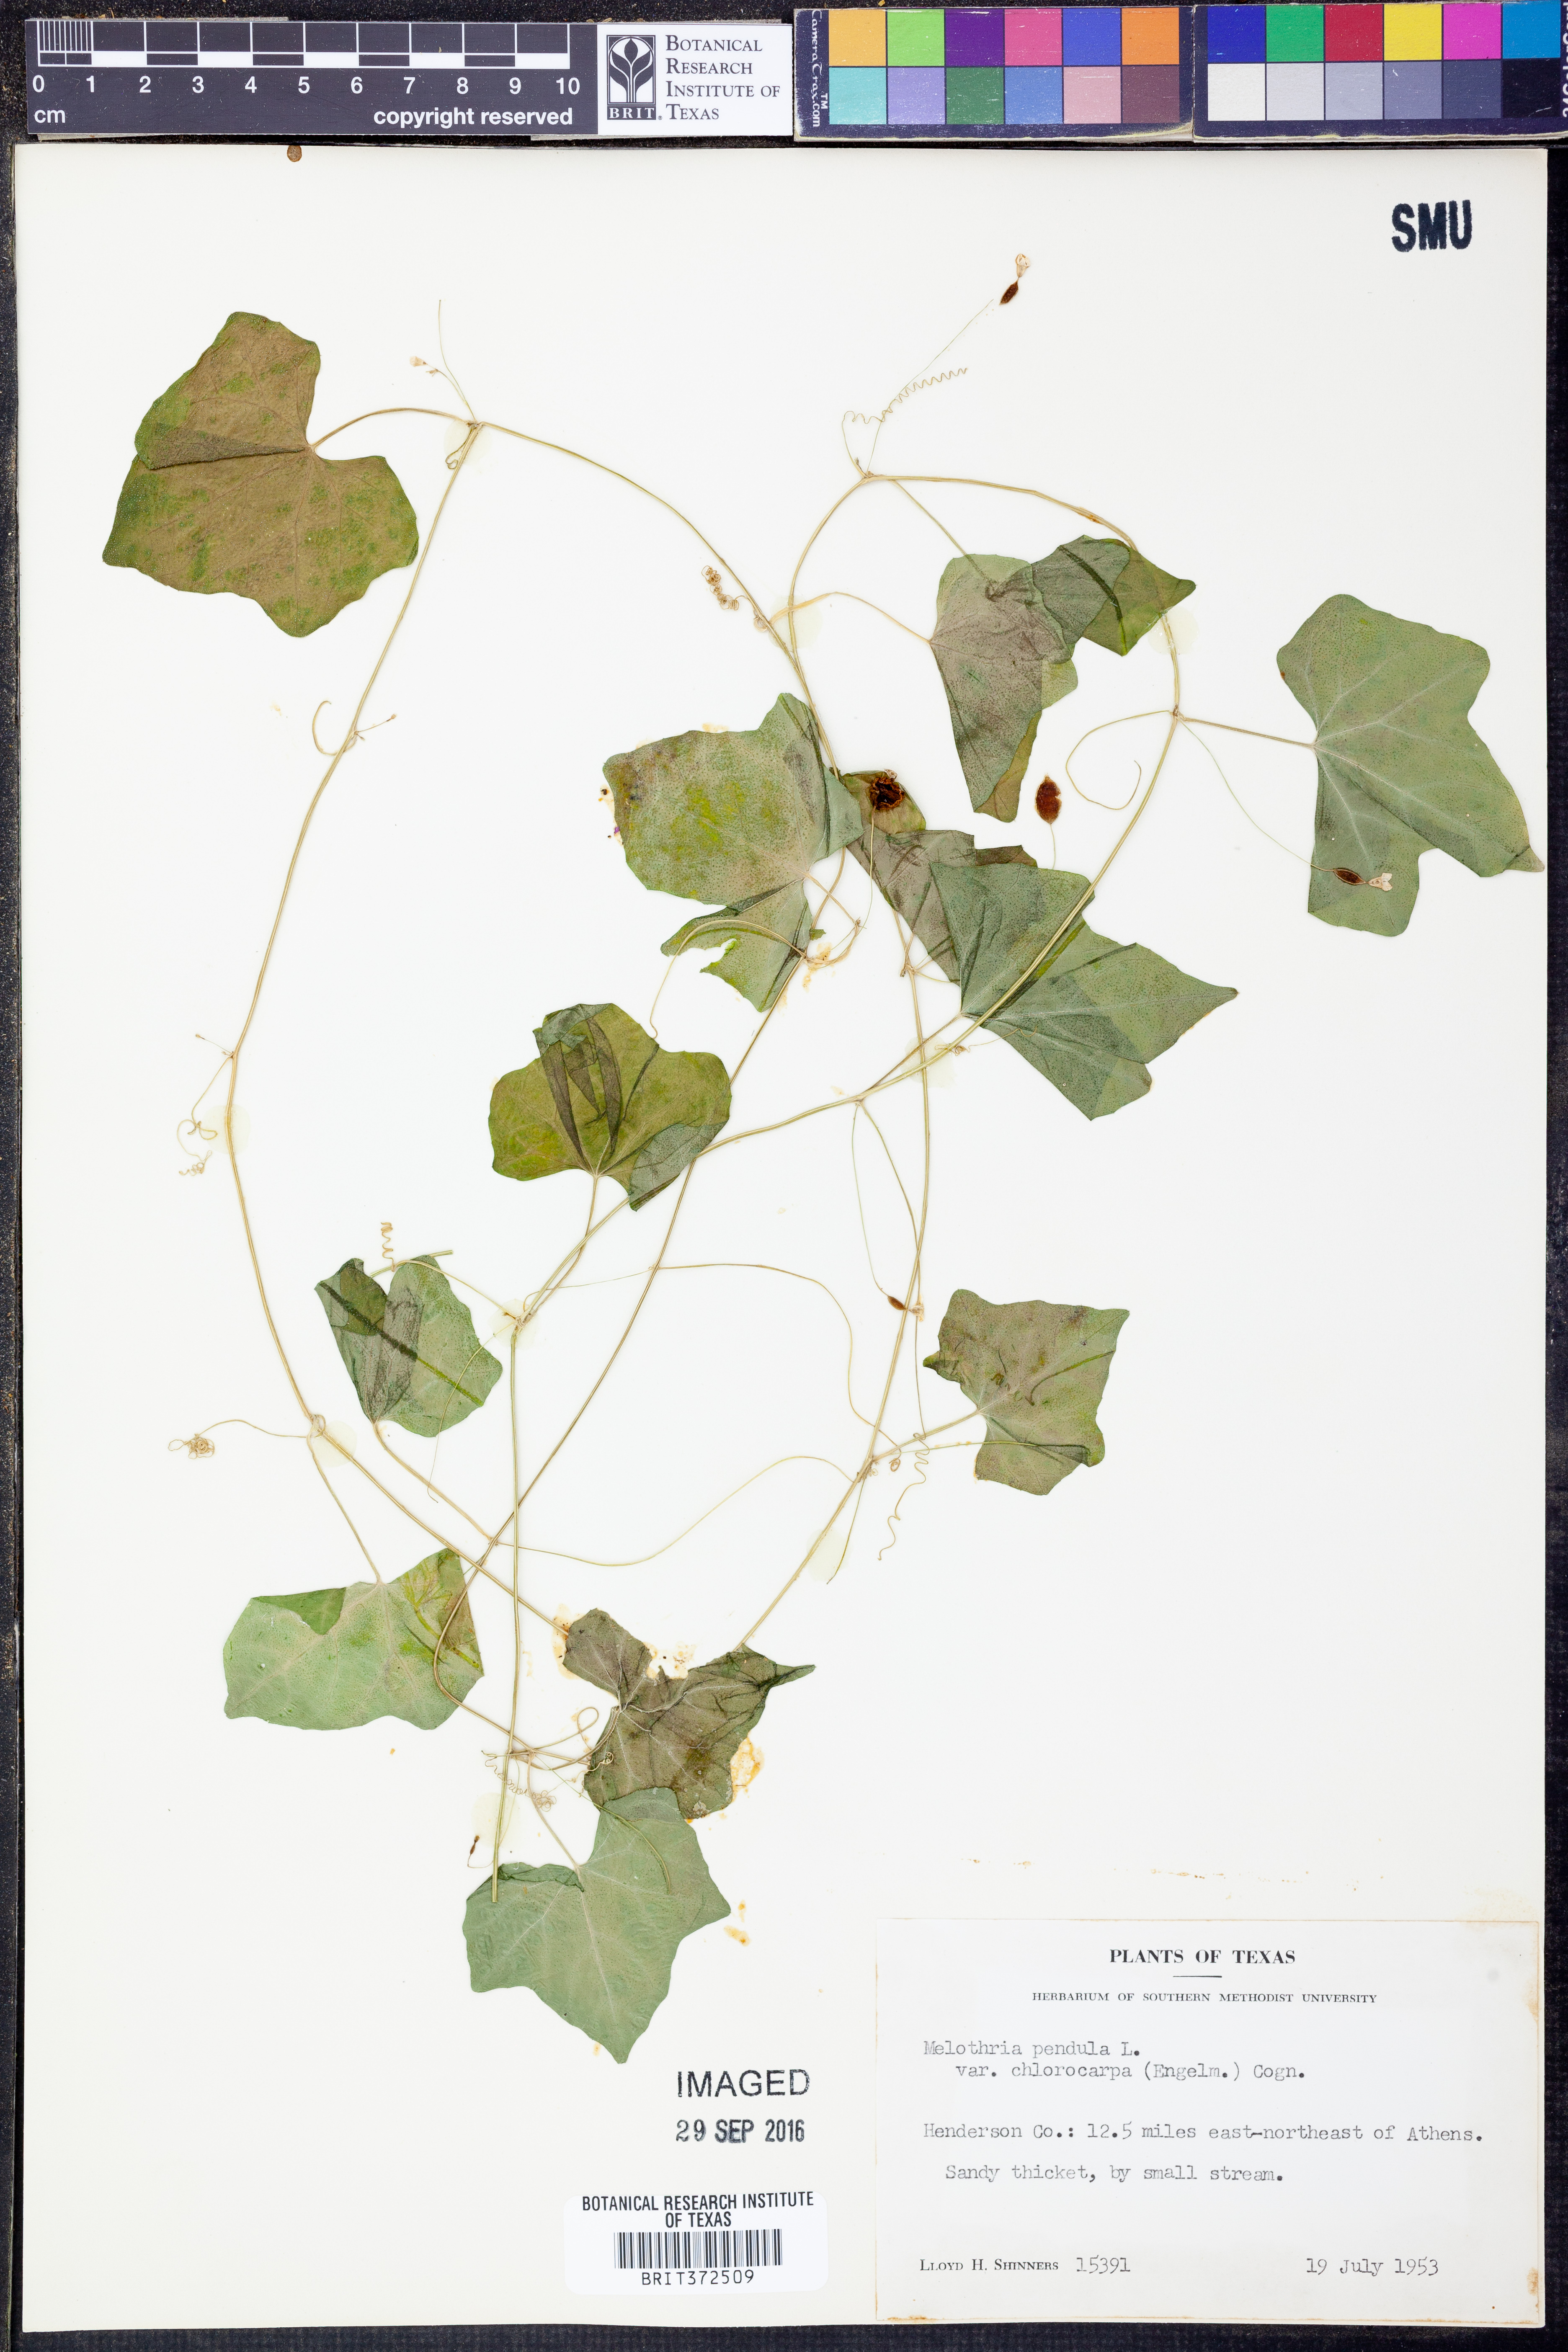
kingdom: Plantae
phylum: Tracheophyta
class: Magnoliopsida
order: Cucurbitales
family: Cucurbitaceae
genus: Melothria
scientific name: Melothria pendula
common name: Creeping-cucumber
